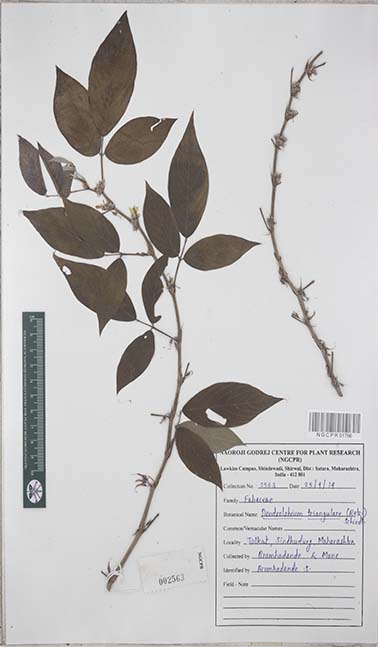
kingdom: Plantae
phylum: Tracheophyta
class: Magnoliopsida
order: Fabales
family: Fabaceae
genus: Dendrolobium
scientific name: Dendrolobium triangulare
